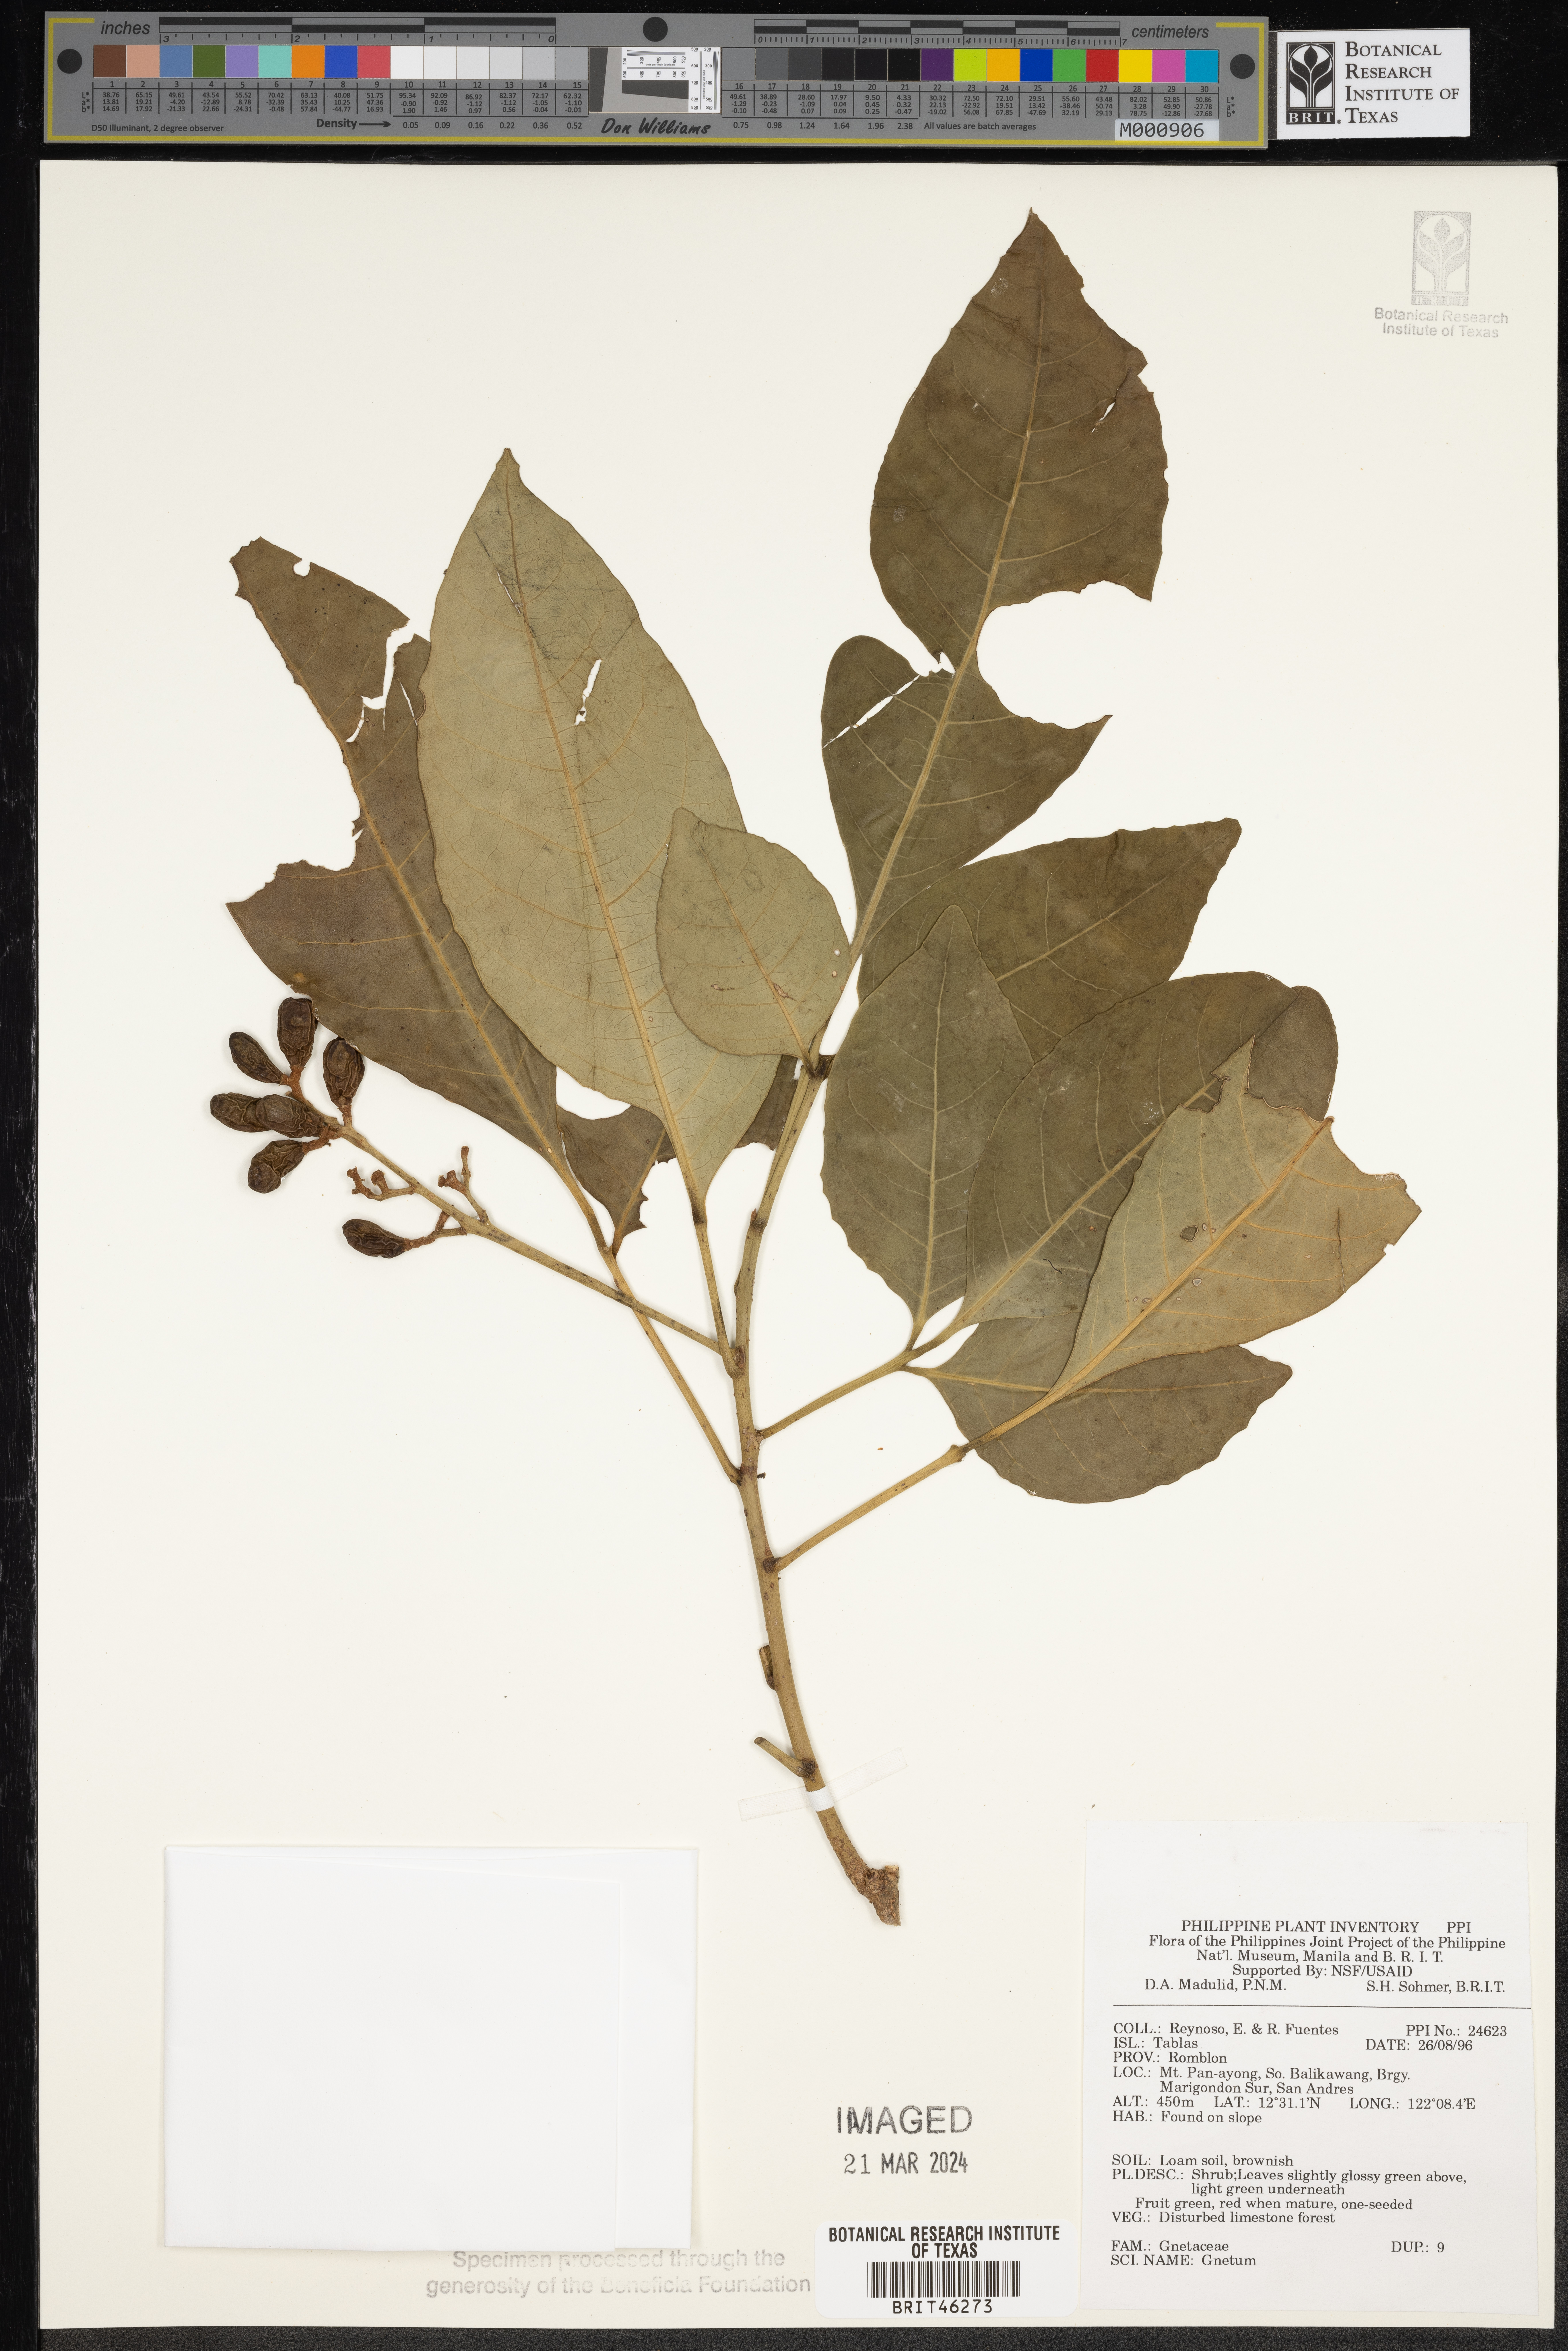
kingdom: Plantae
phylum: Tracheophyta
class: Gnetopsida
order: Gnetales
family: Gnetaceae
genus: Gnetum
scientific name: Gnetum
